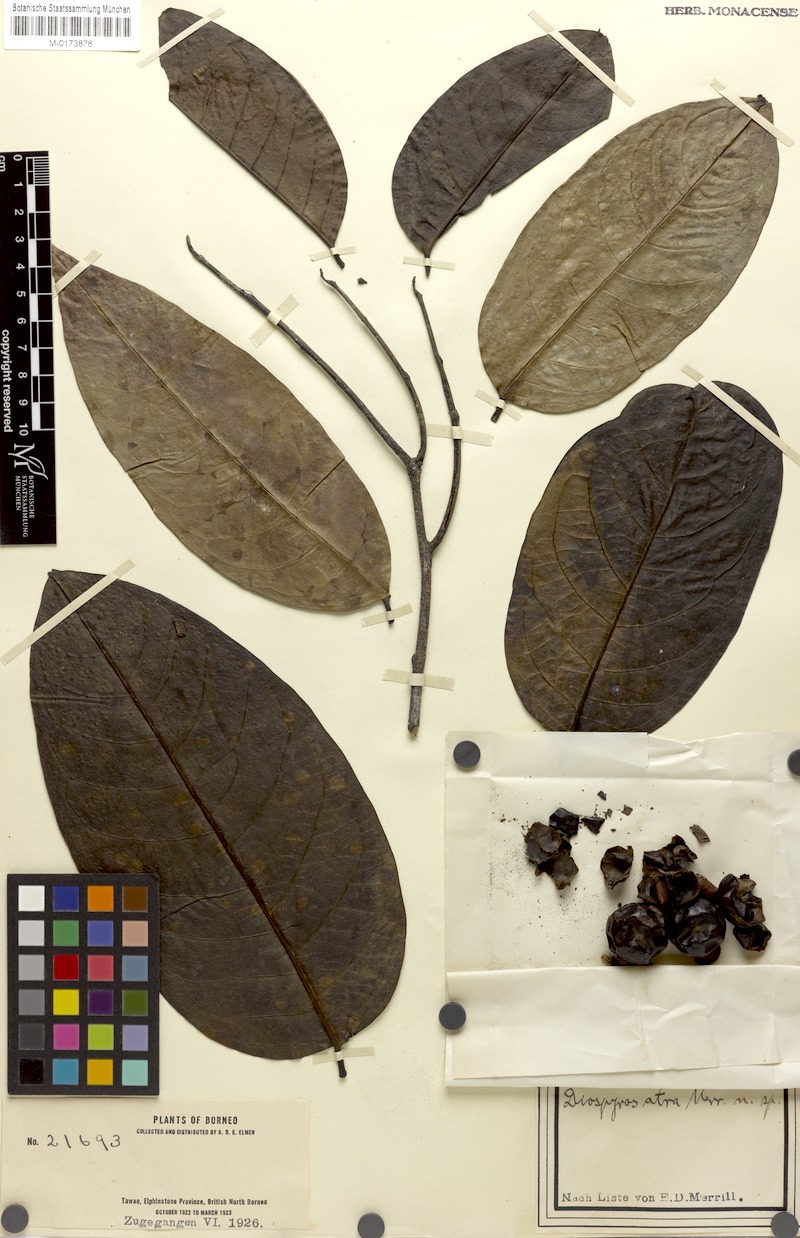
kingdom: Plantae
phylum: Tracheophyta
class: Magnoliopsida
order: Ericales
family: Ebenaceae
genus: Diospyros
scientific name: Diospyros frutescens
